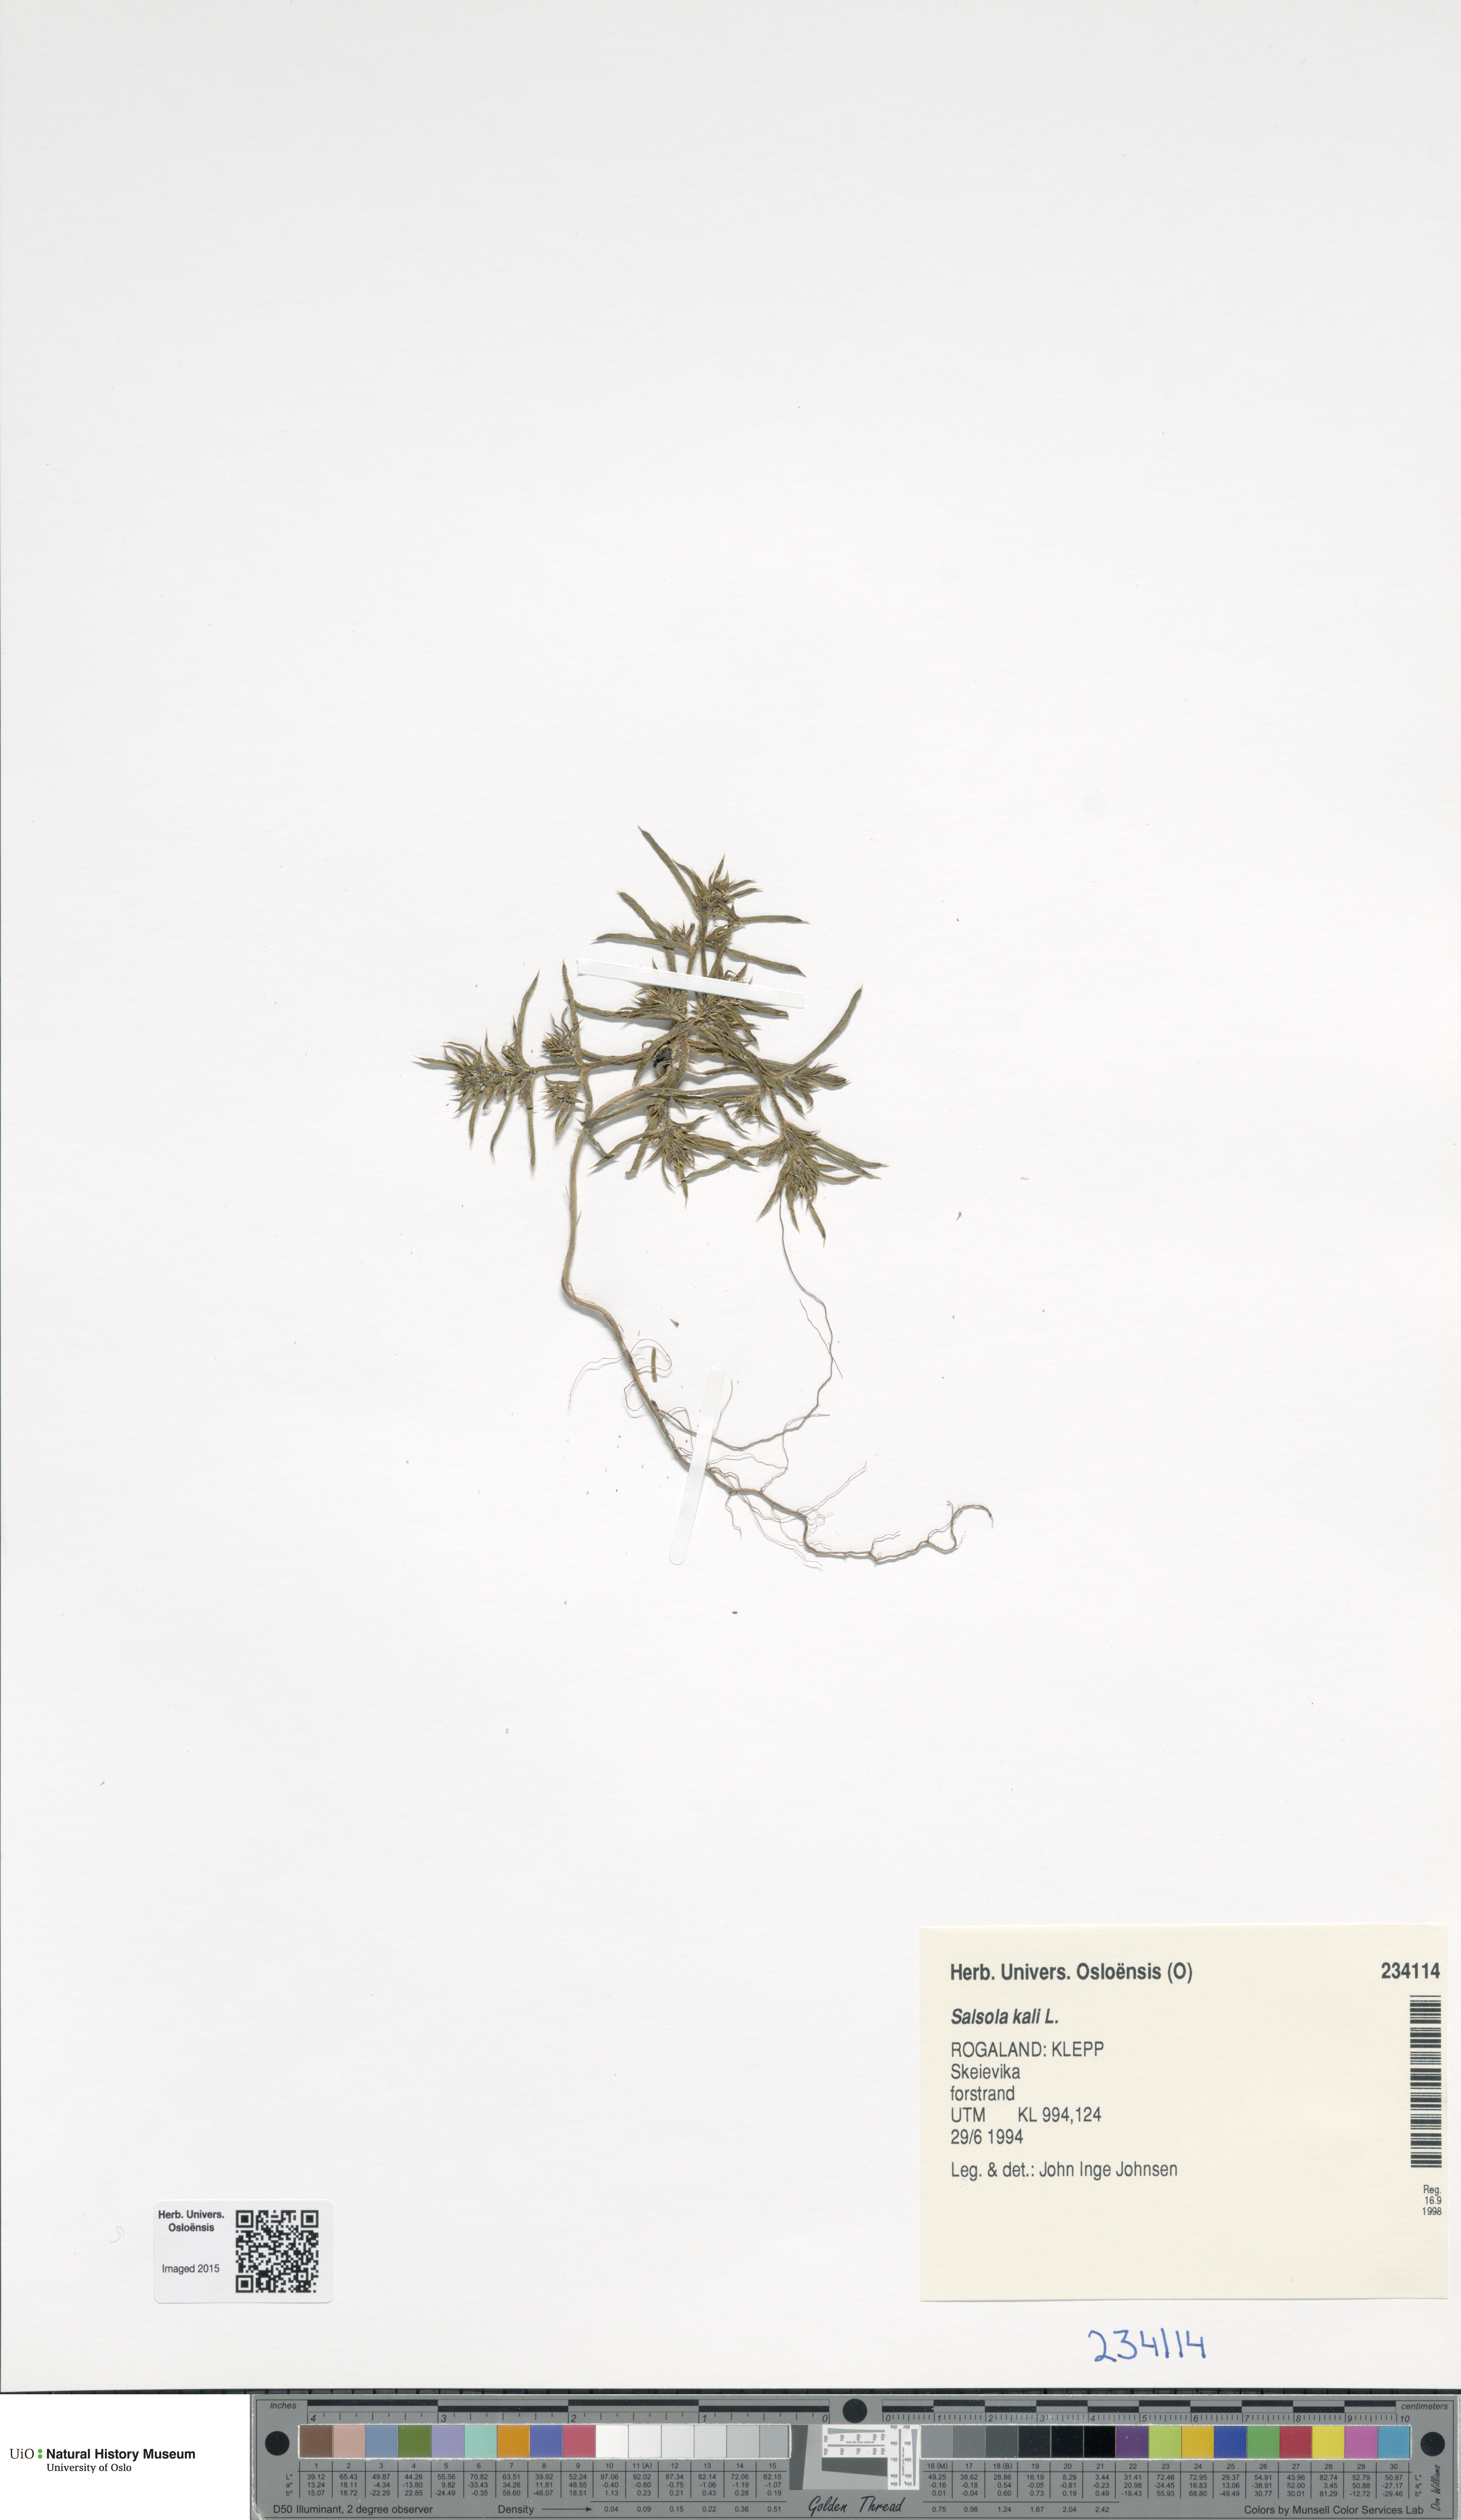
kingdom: Plantae
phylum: Tracheophyta
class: Magnoliopsida
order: Caryophyllales
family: Amaranthaceae
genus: Salsola
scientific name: Salsola kali
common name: Saltwort
